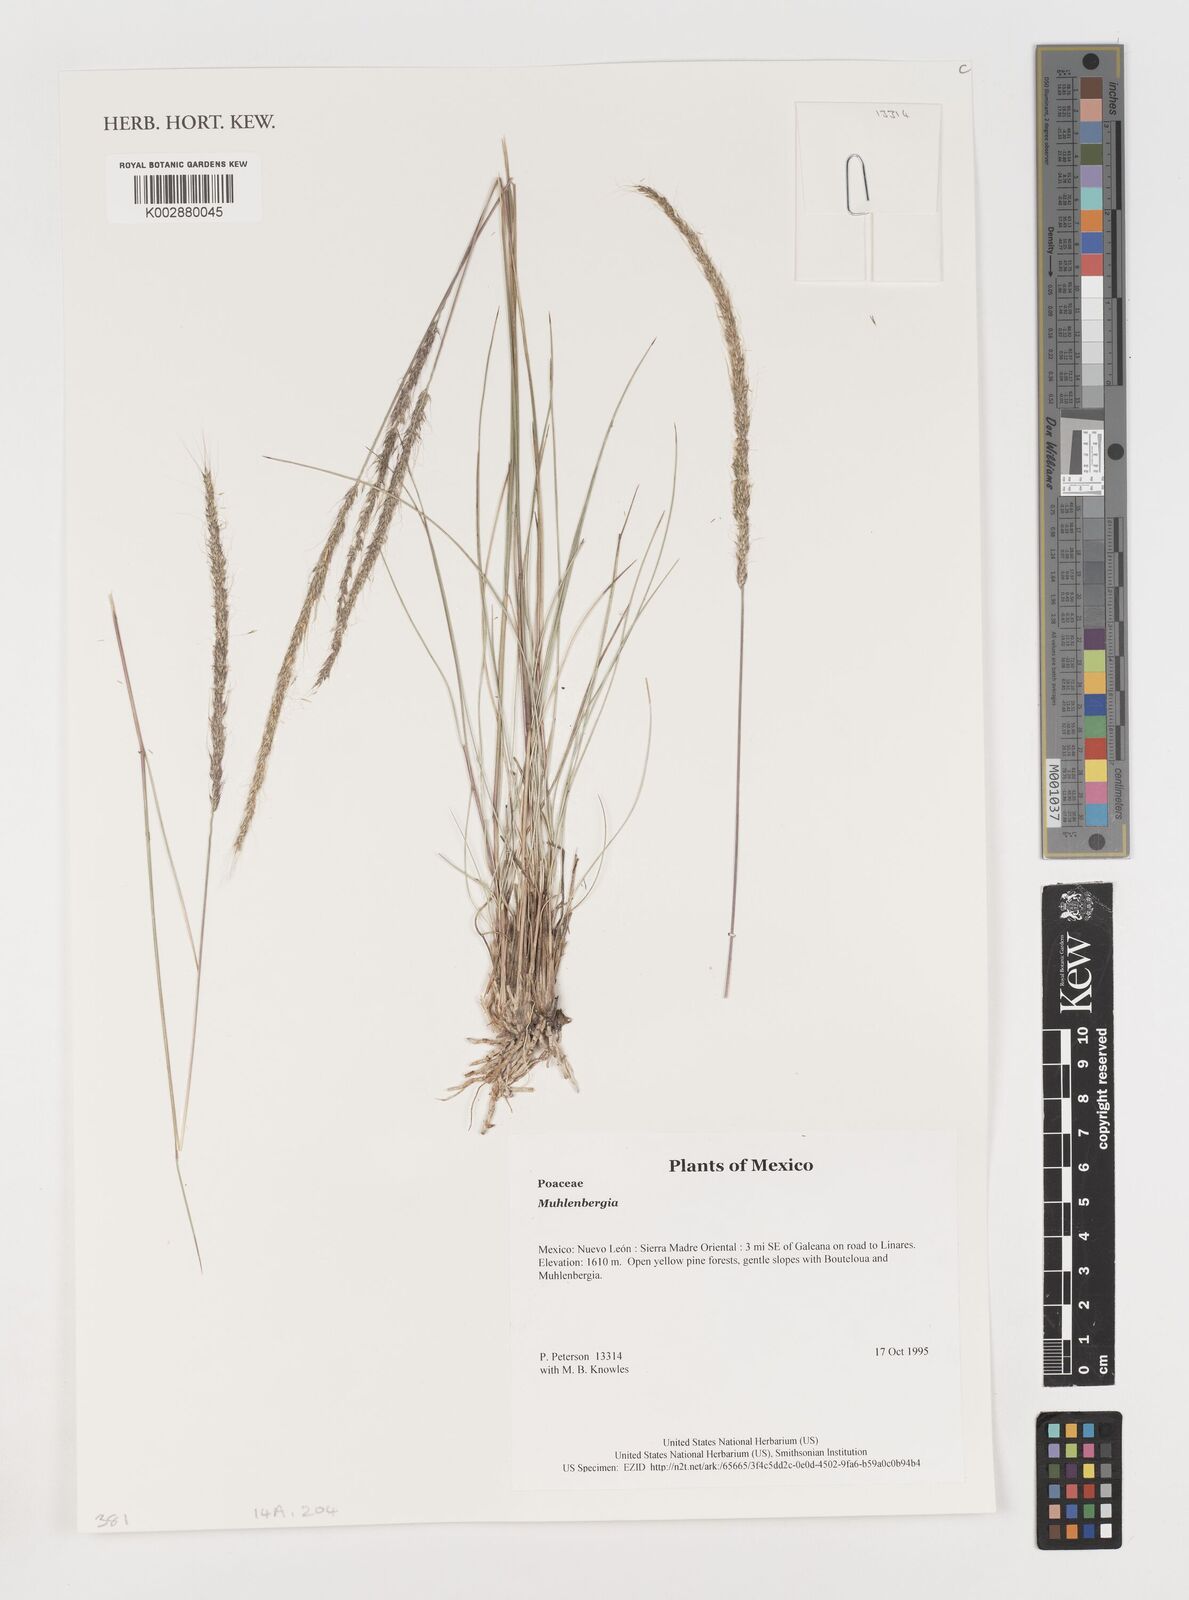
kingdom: Plantae
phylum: Tracheophyta
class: Liliopsida
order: Poales
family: Poaceae
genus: Muhlenbergia
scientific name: Muhlenbergia
